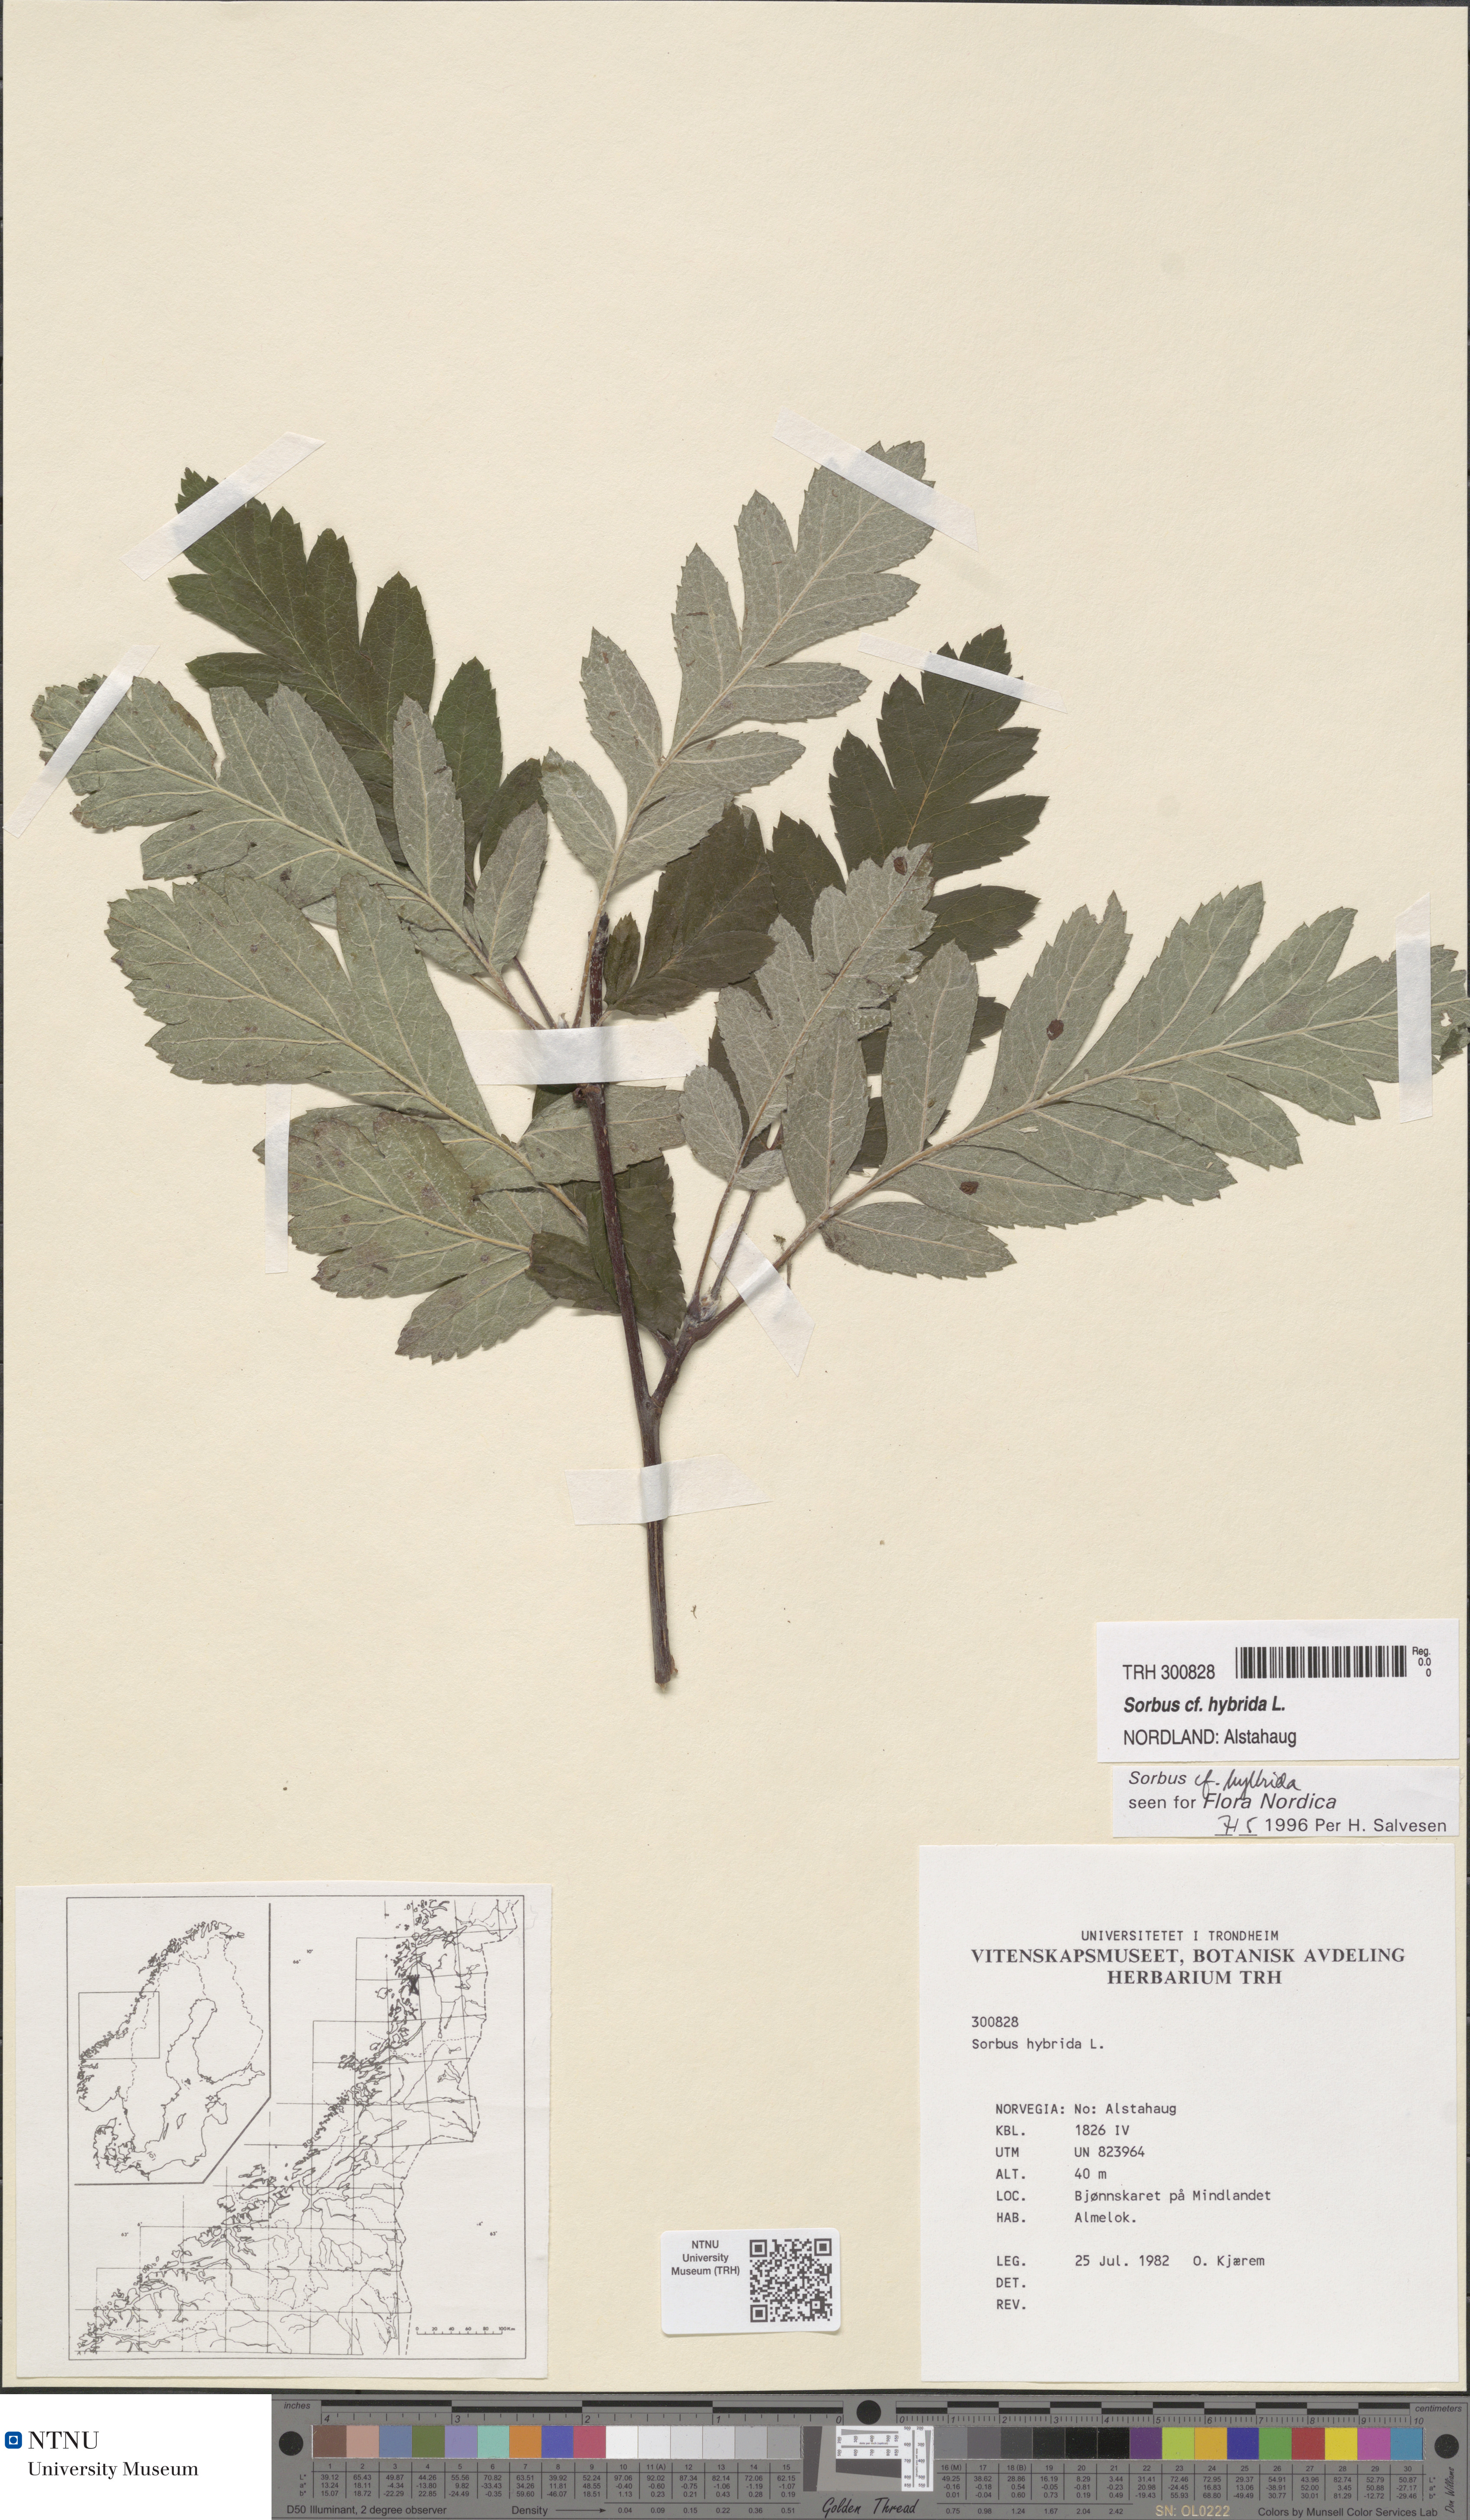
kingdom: Plantae
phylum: Tracheophyta
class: Magnoliopsida
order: Rosales
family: Rosaceae
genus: Hedlundia
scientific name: Hedlundia hybrida
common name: Swedish service-tree
